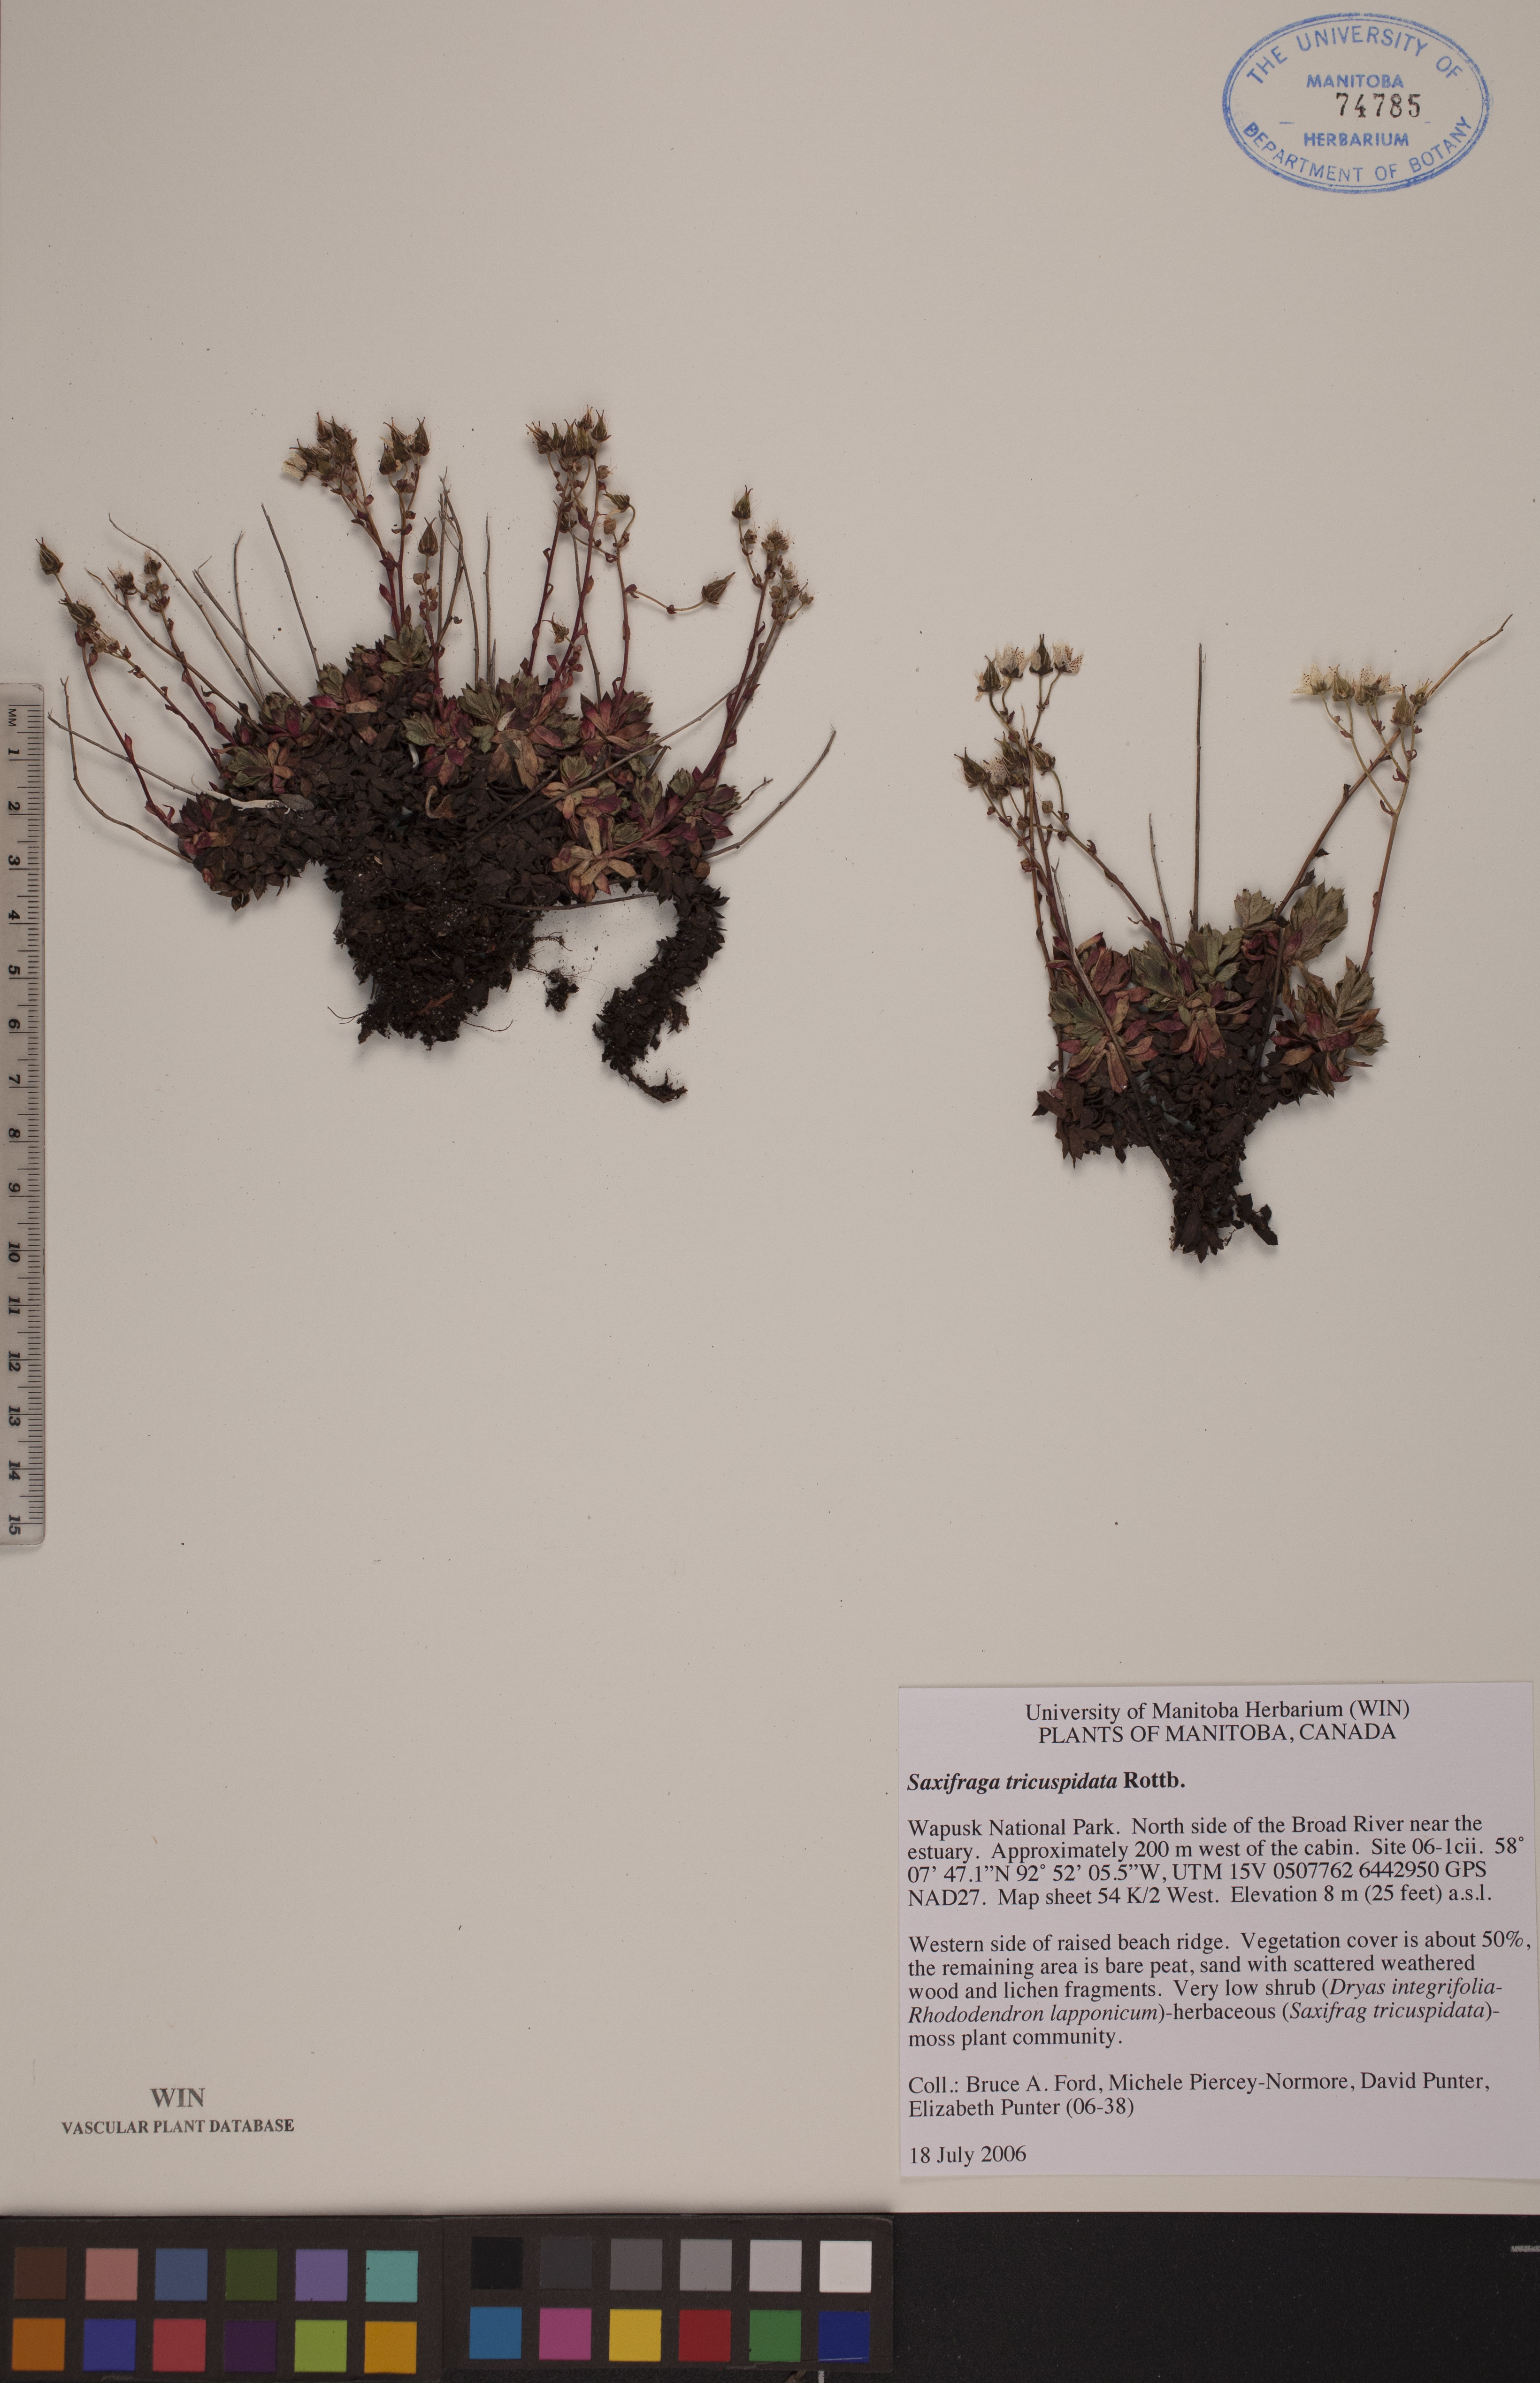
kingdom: Plantae
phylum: Tracheophyta
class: Magnoliopsida
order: Saxifragales
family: Saxifragaceae
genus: Saxifraga
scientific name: Saxifraga tricuspidata
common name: Prickly saxifrage
